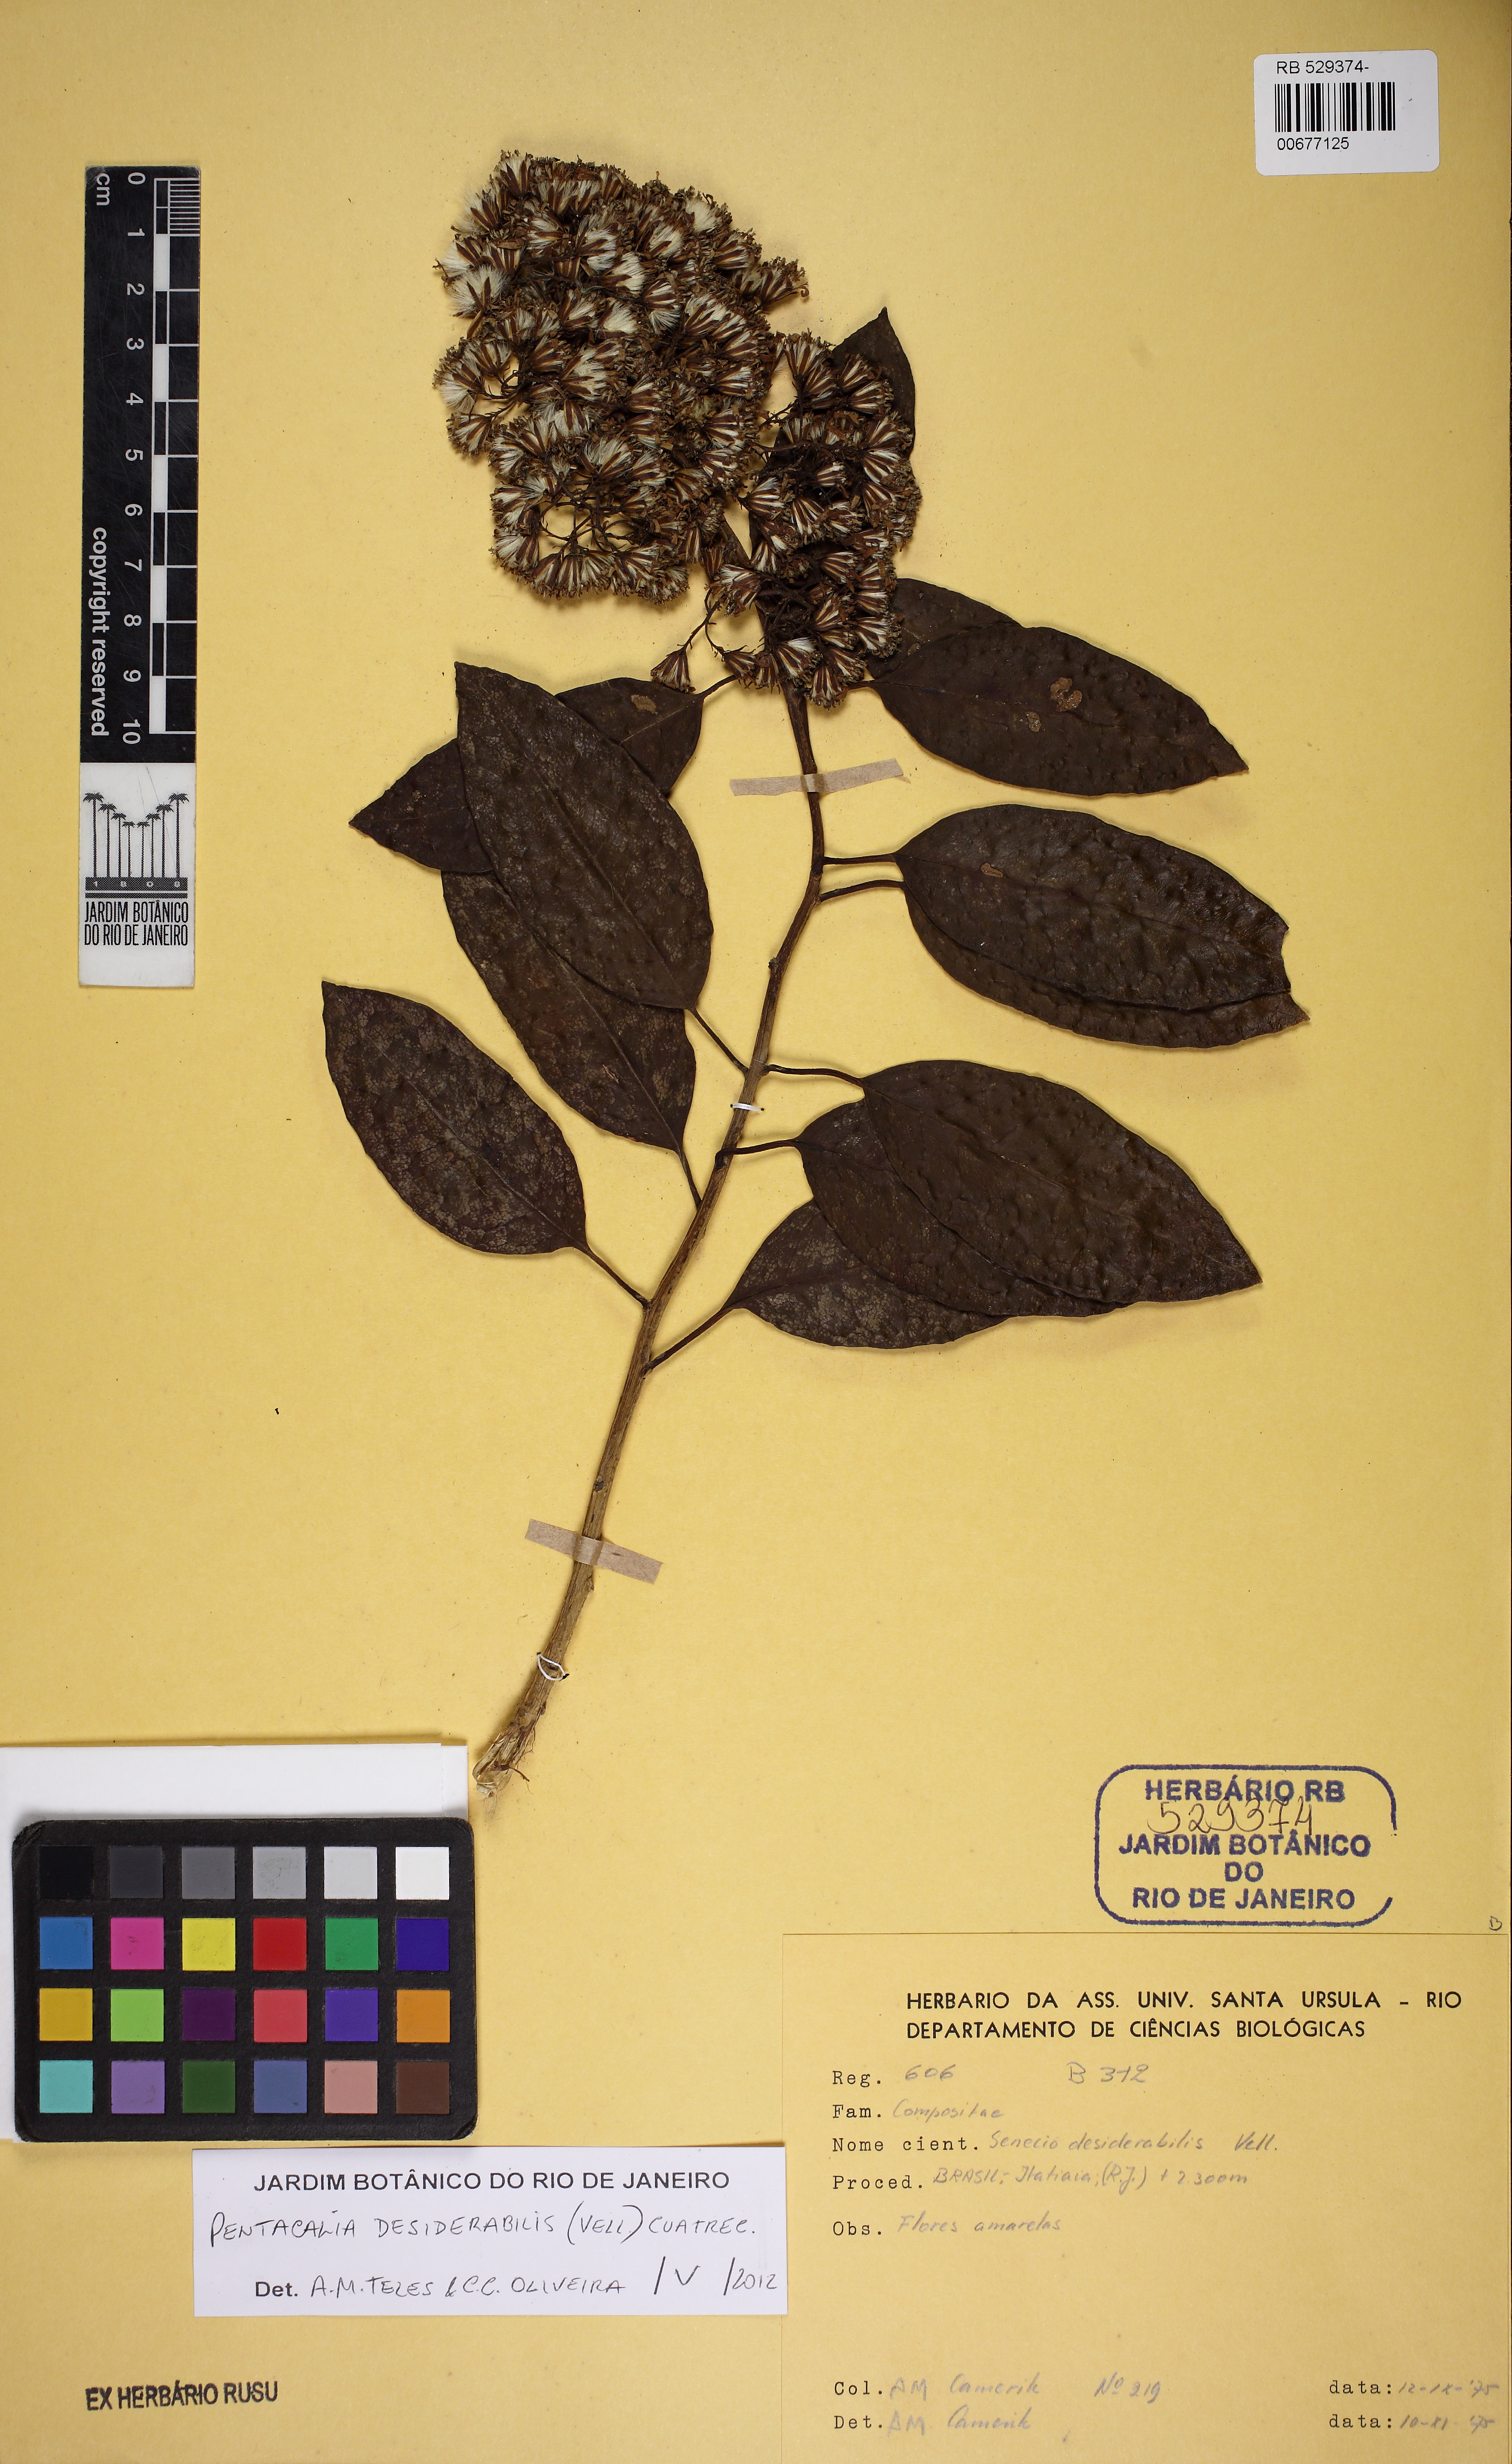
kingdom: Plantae
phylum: Tracheophyta
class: Magnoliopsida
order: Asterales
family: Asteraceae
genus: Pentacalia
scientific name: Pentacalia desiderabilis
